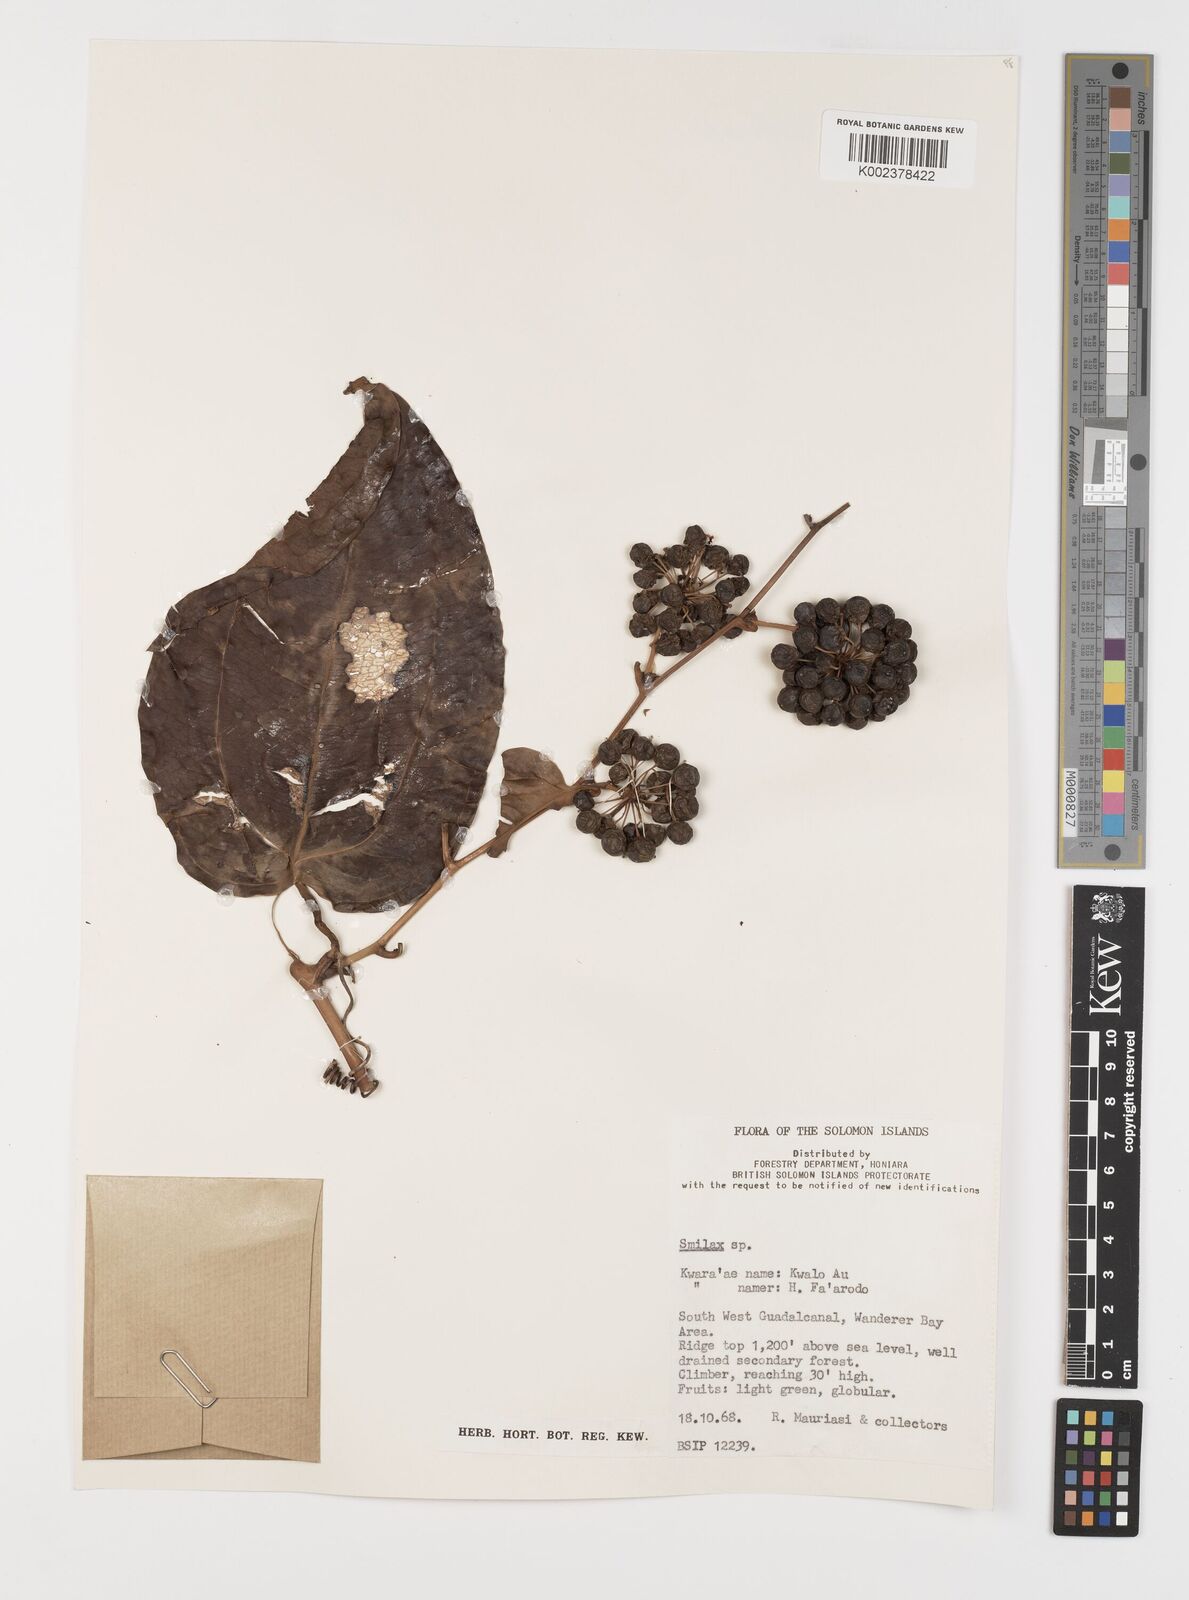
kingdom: Plantae
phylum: Tracheophyta
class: Liliopsida
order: Liliales
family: Smilacaceae
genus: Smilax
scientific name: Smilax
